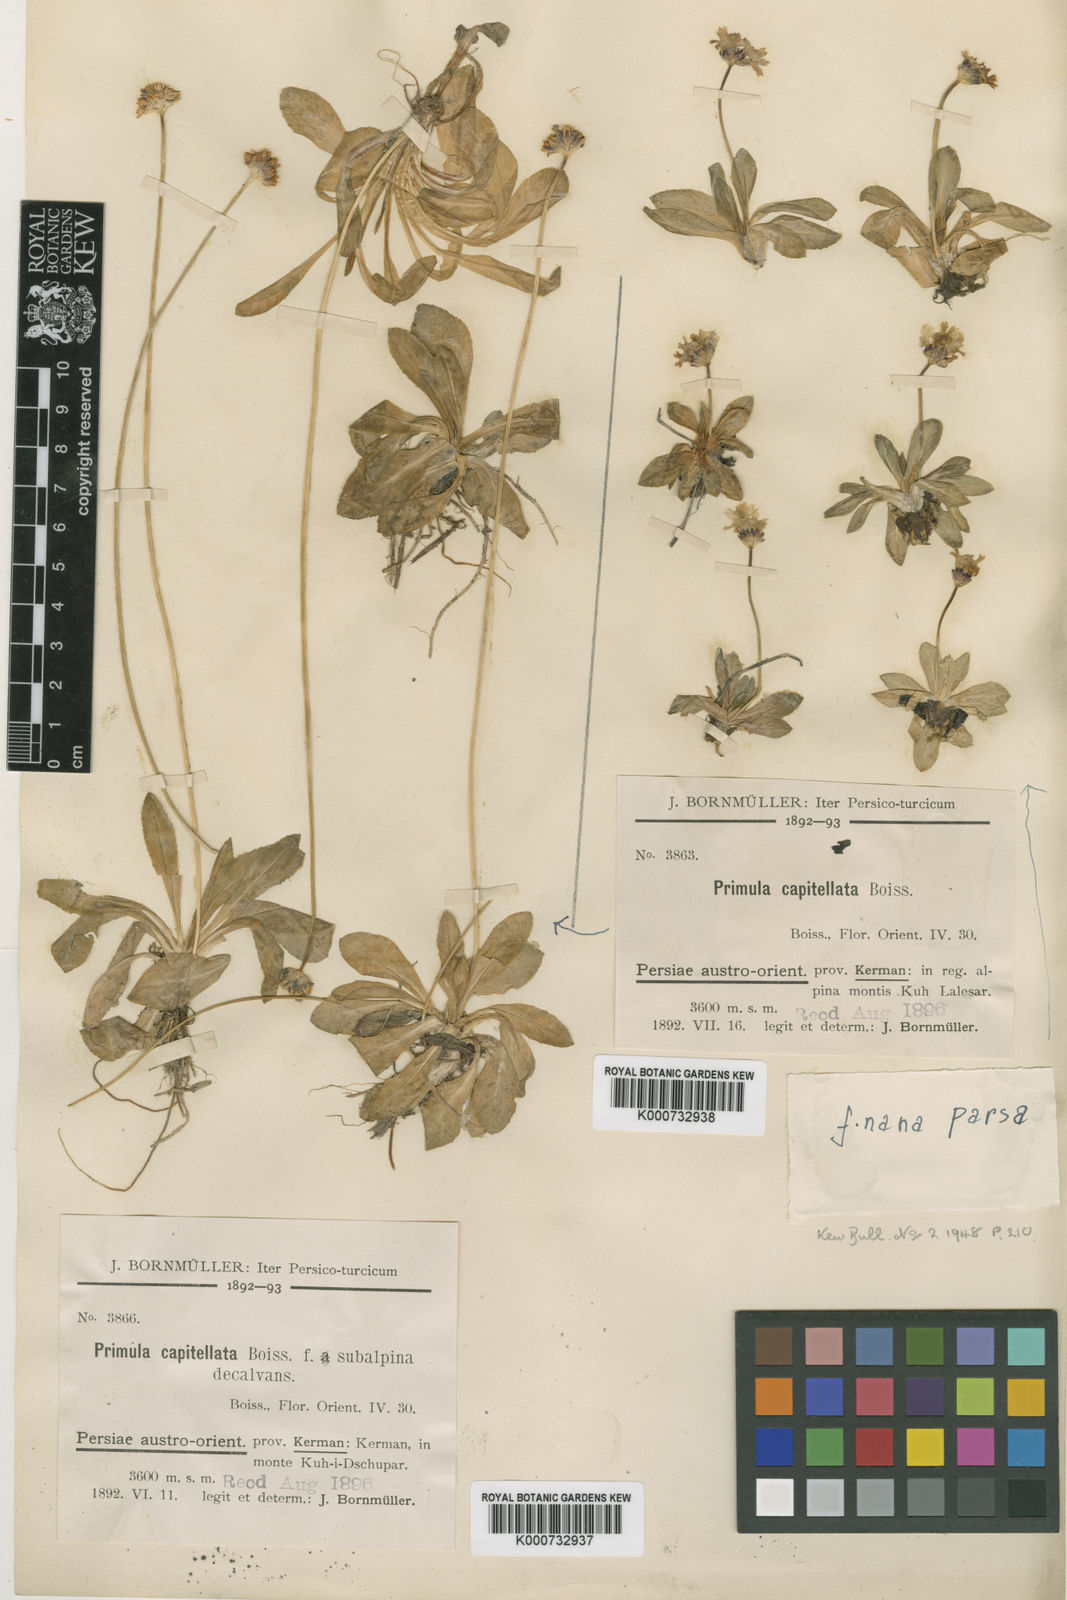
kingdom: Plantae
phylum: Tracheophyta
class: Magnoliopsida
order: Ericales
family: Primulaceae
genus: Primula
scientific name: Primula capitellata
